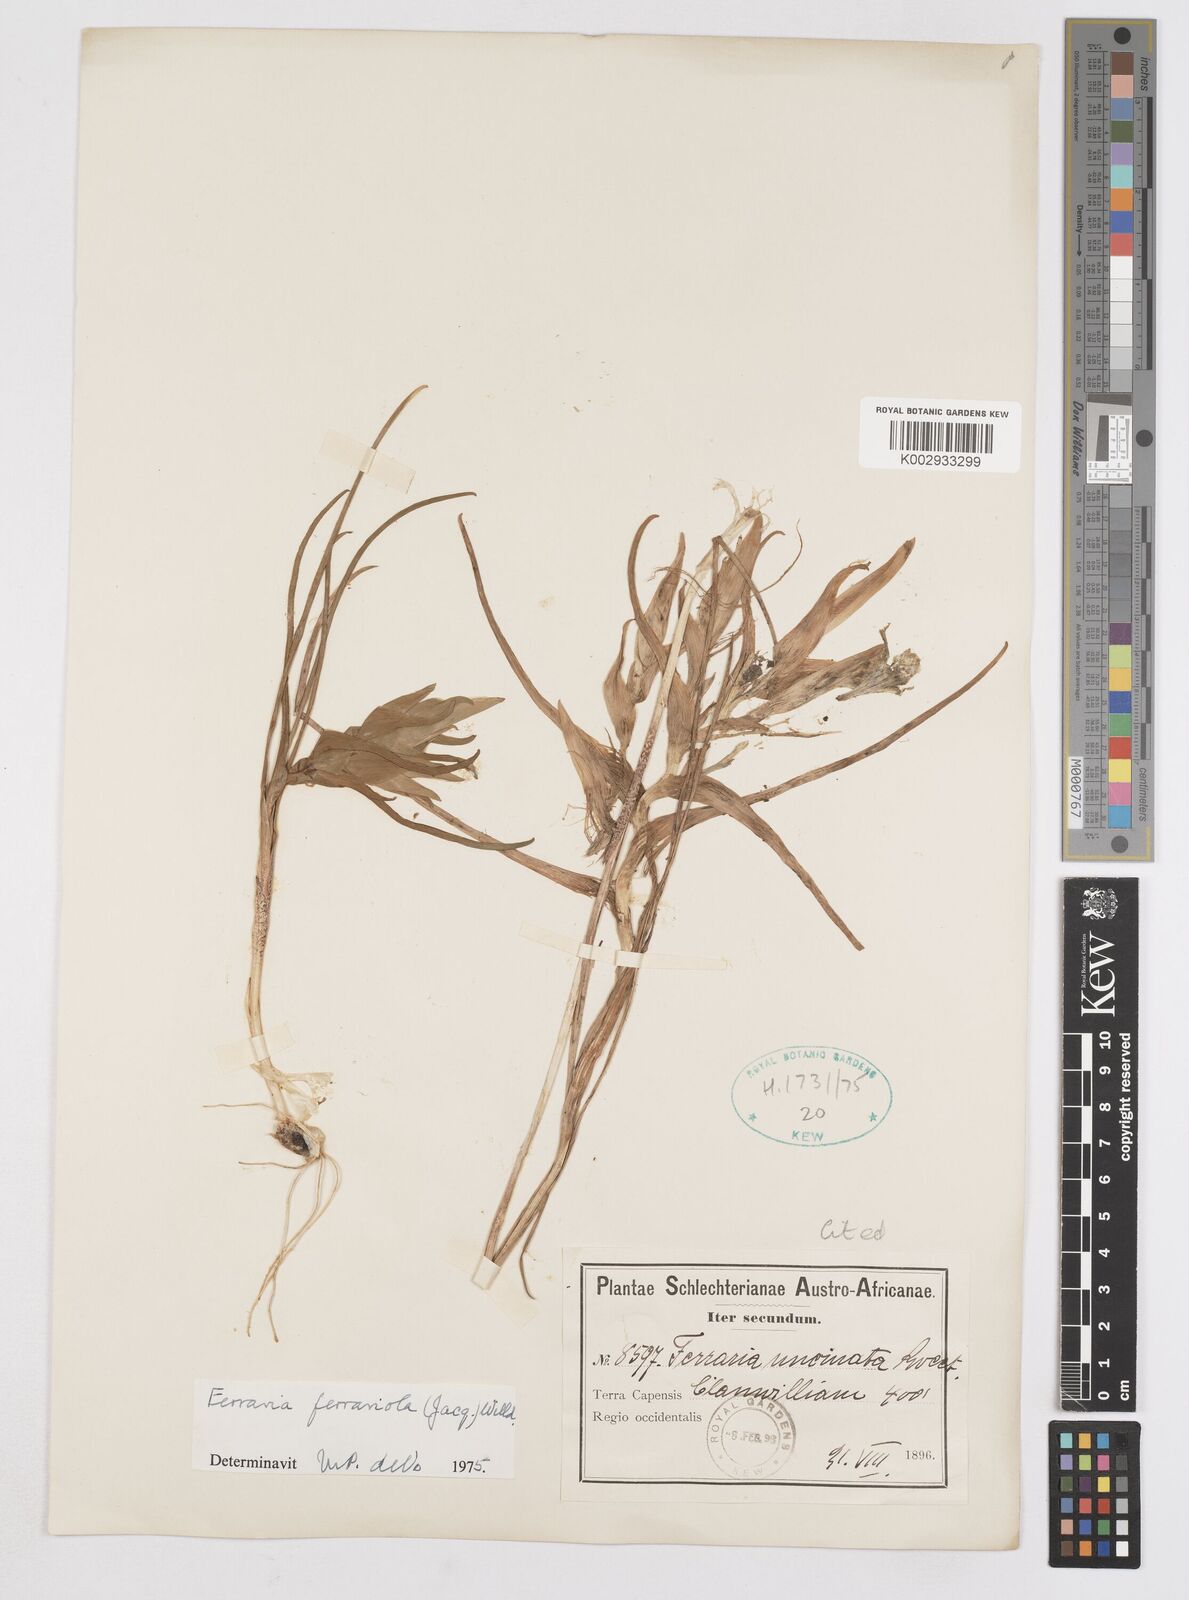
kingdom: Plantae
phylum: Tracheophyta
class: Liliopsida
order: Asparagales
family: Iridaceae
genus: Ferraria
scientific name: Ferraria ferrariola
